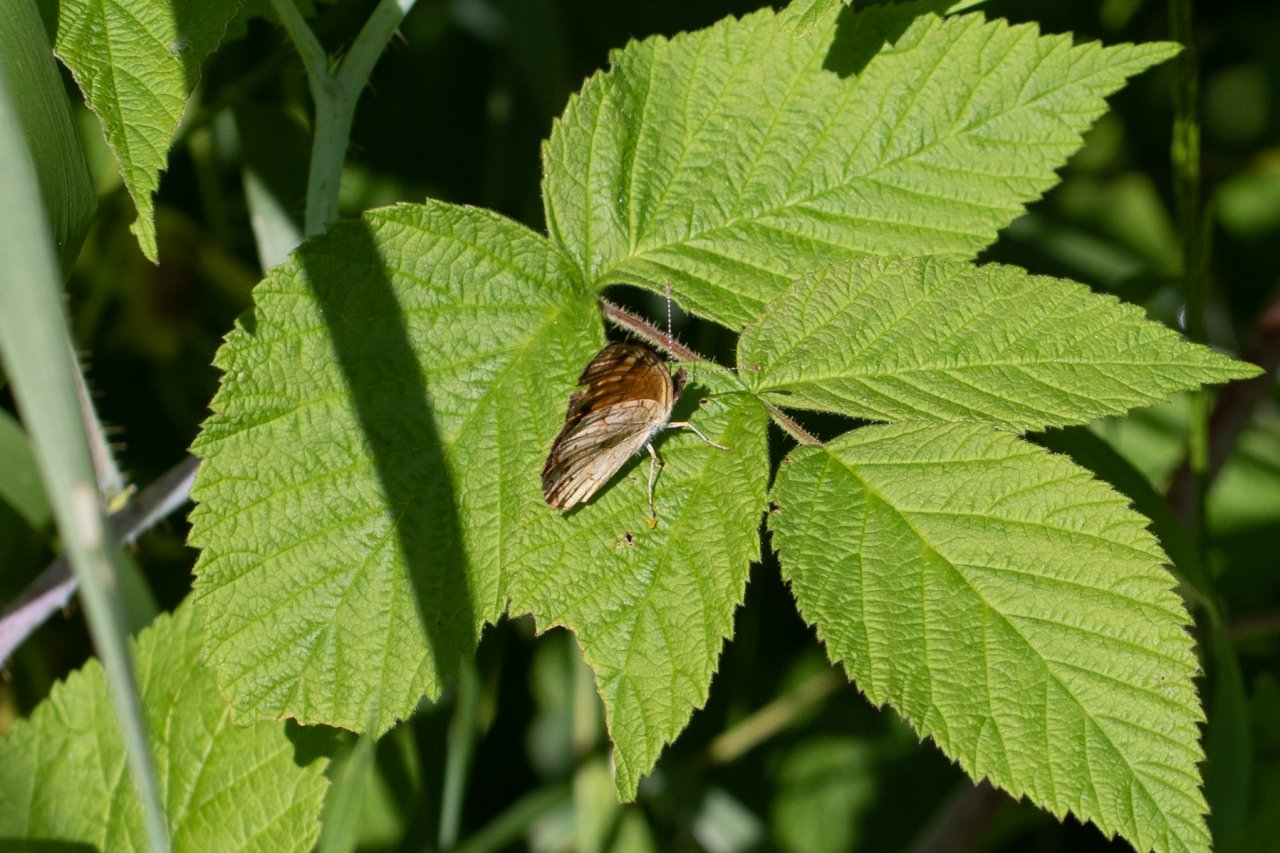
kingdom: Animalia
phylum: Arthropoda
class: Insecta
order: Lepidoptera
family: Nymphalidae
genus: Phyciodes
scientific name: Phyciodes
